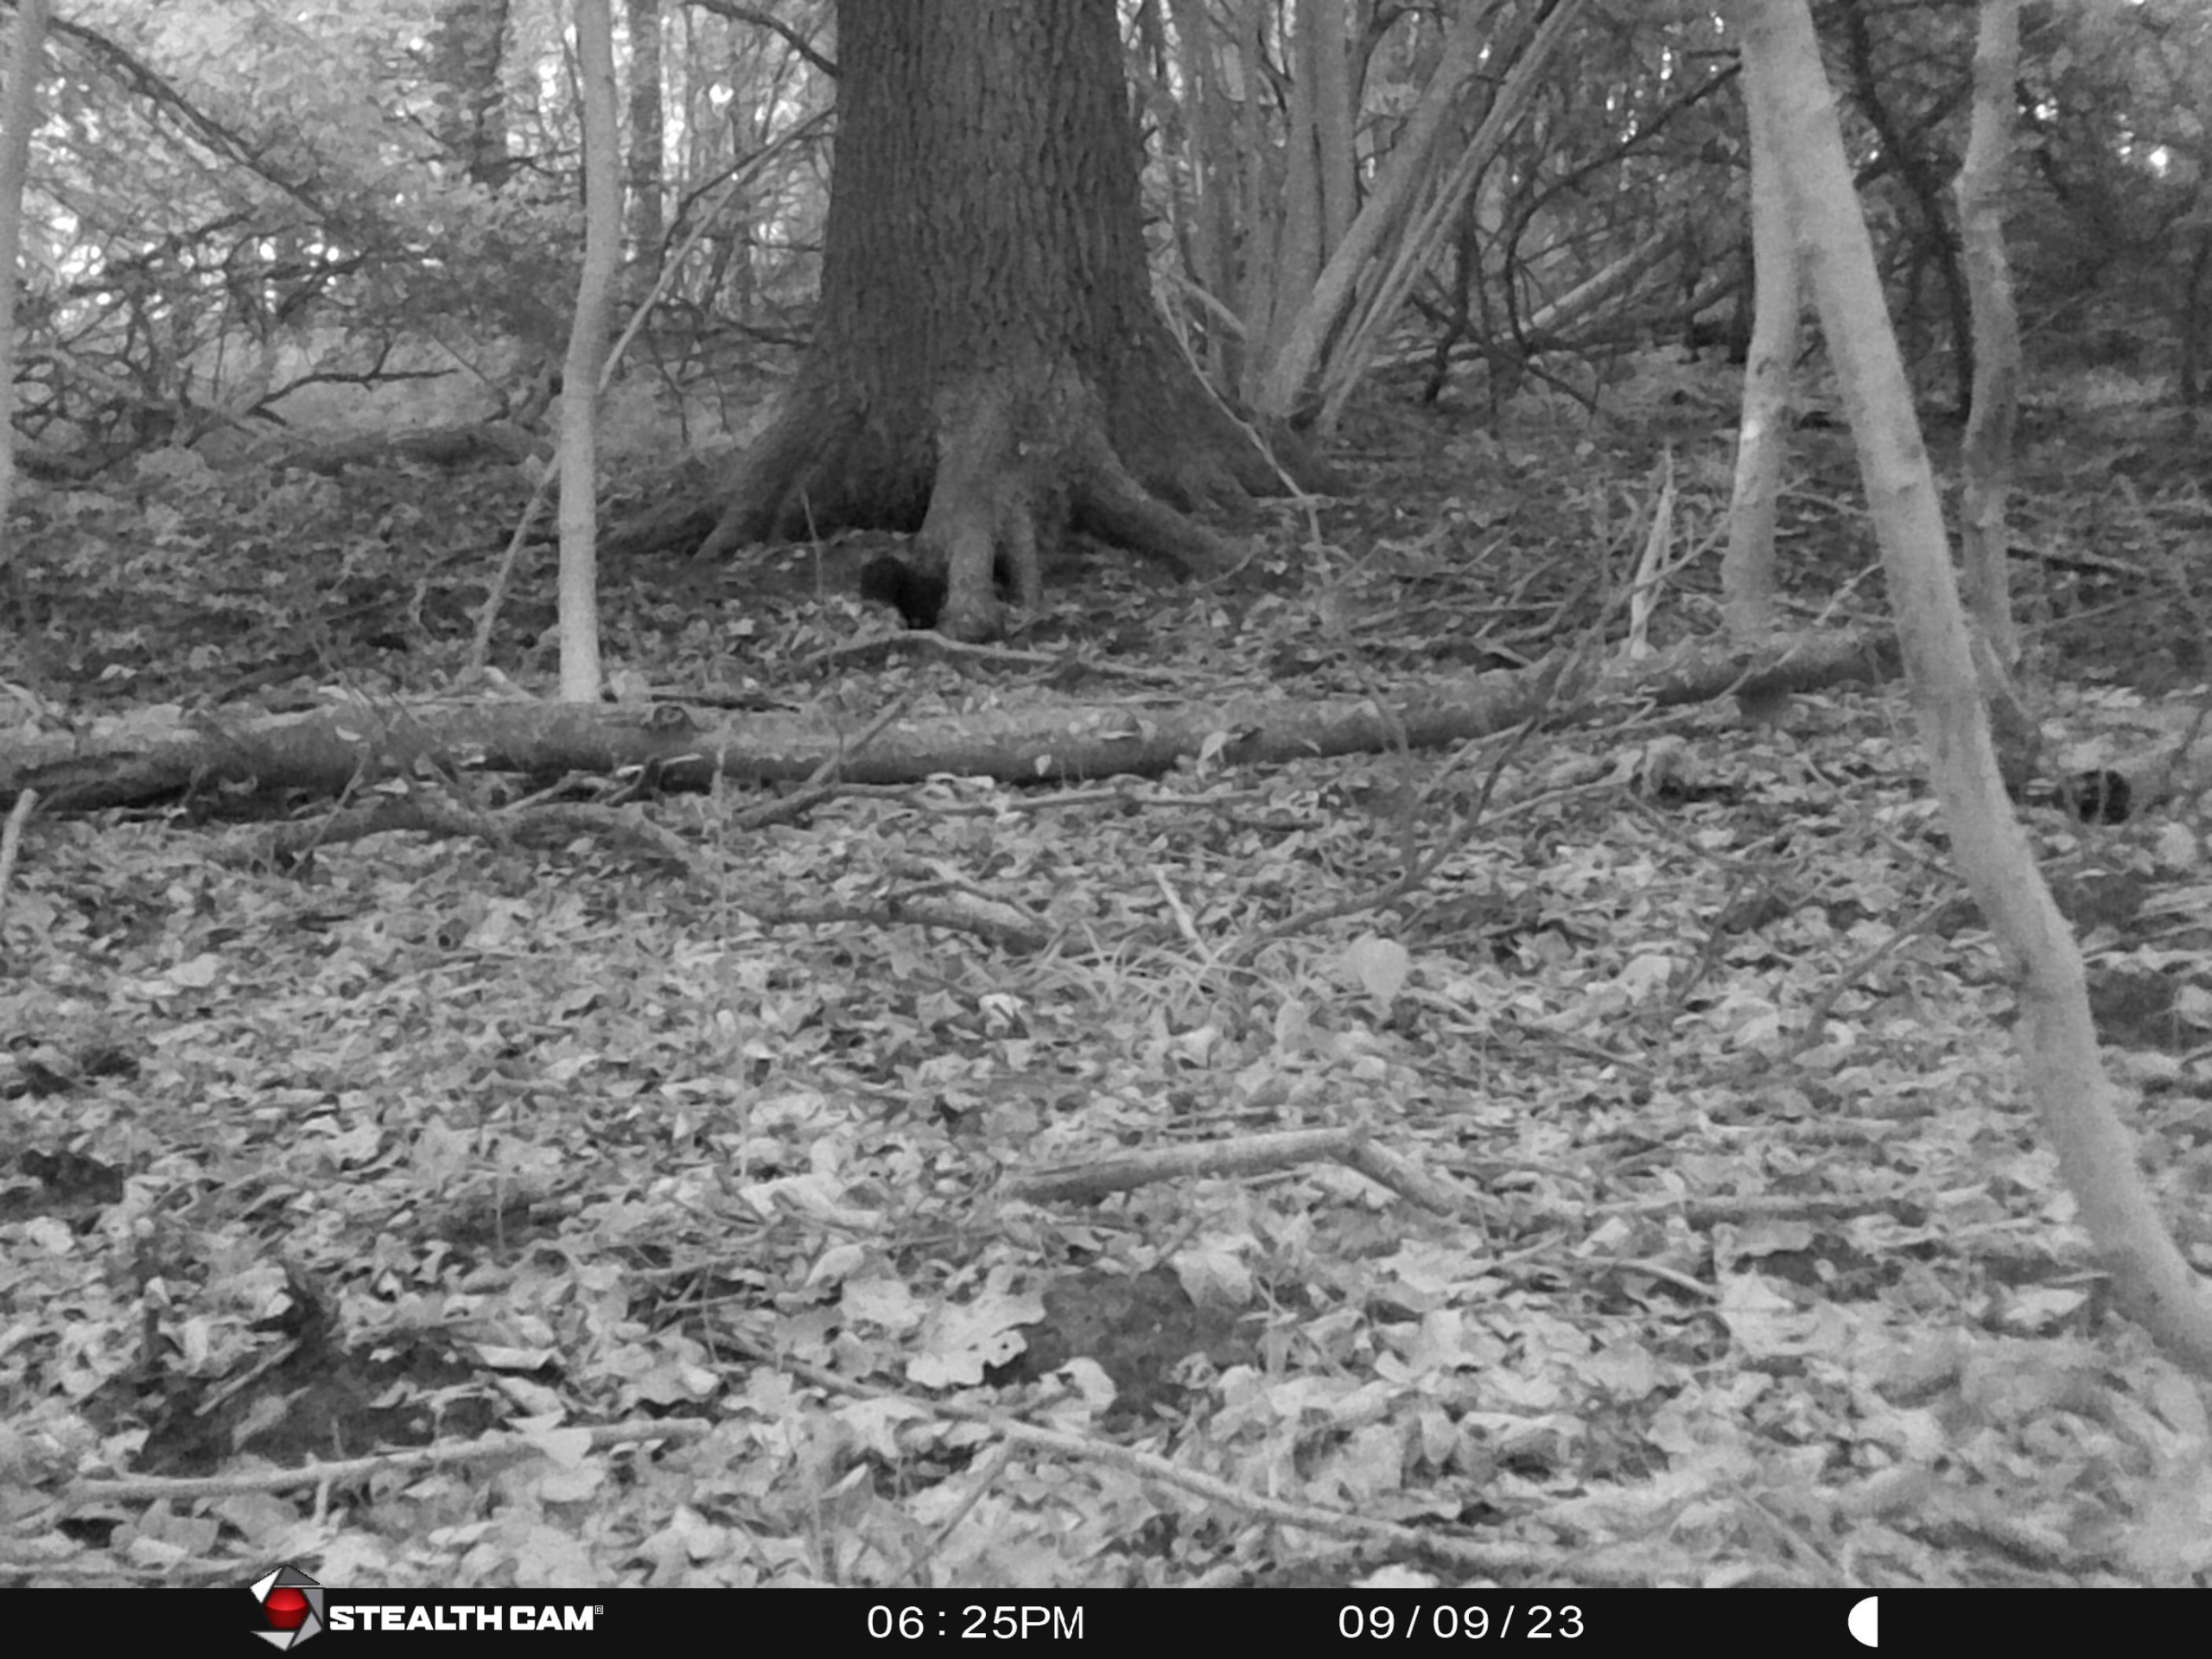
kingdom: Animalia
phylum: Chordata
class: Mammalia
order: Rodentia
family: Sciuridae
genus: Sciurus
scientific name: Sciurus vulgaris
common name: Egern
